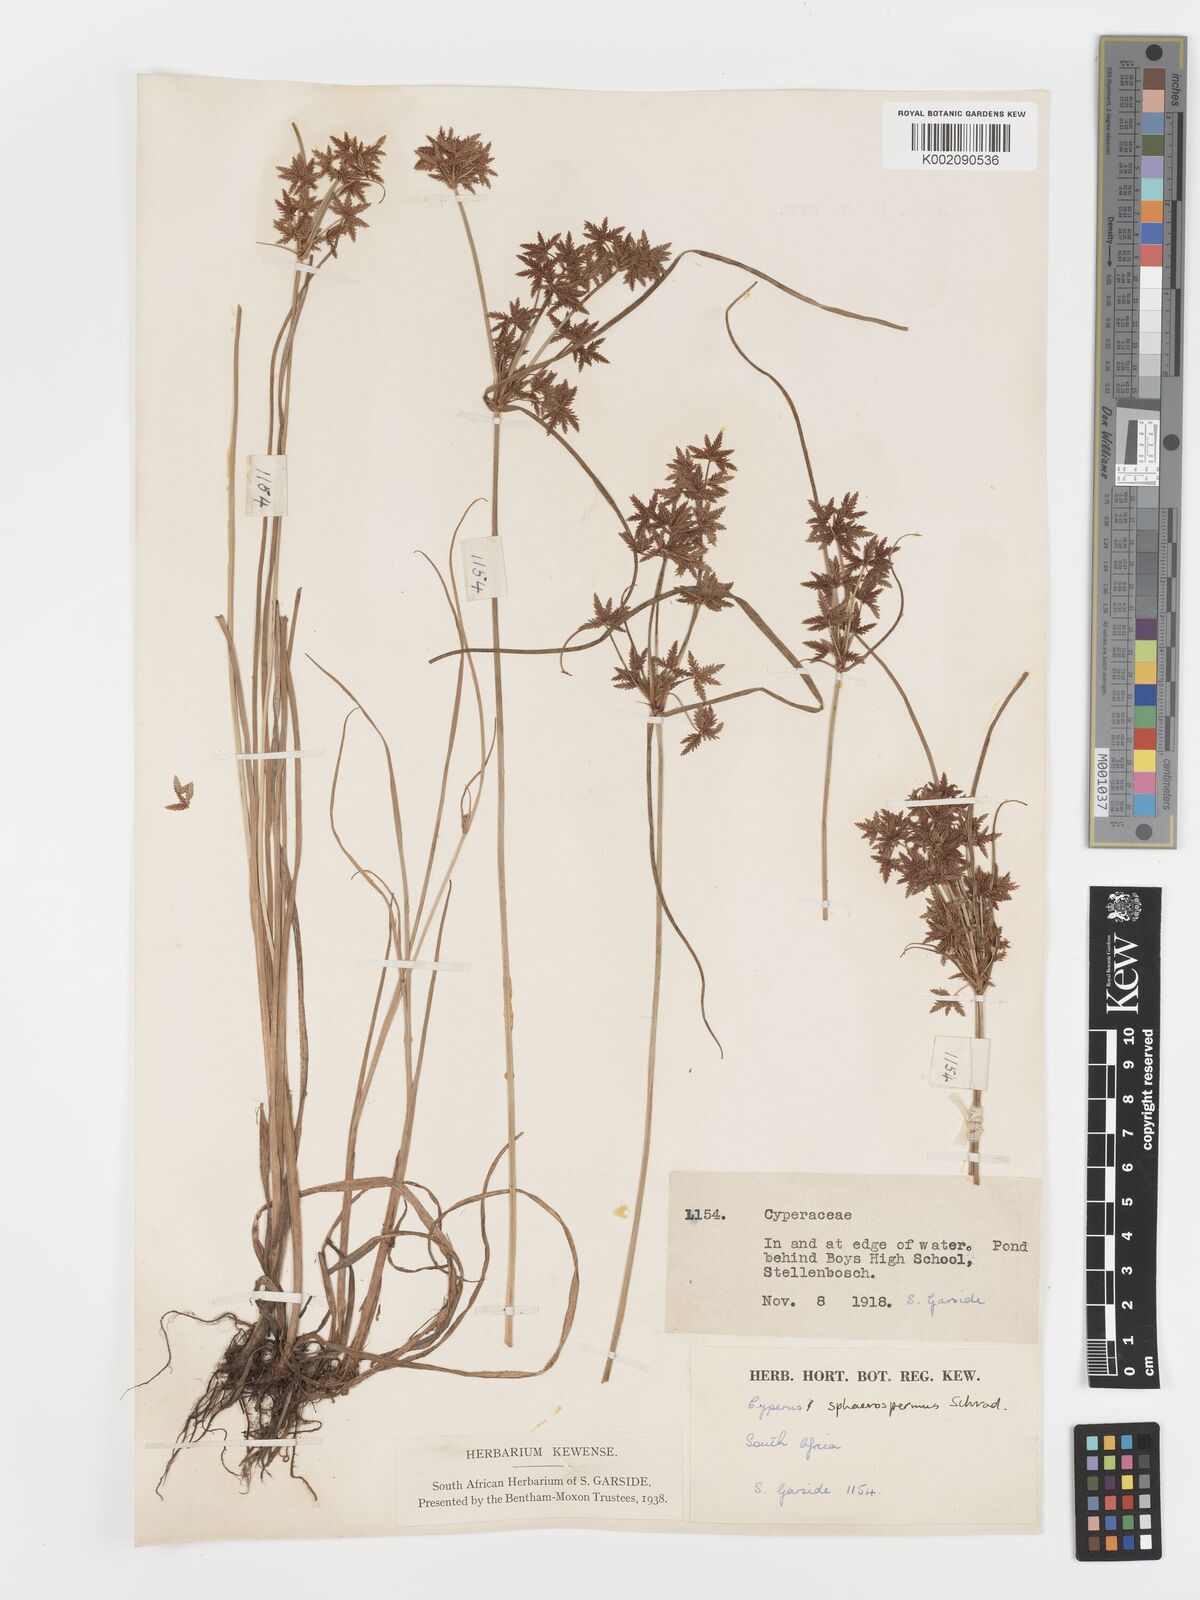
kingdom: Plantae
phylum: Tracheophyta
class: Liliopsida
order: Poales
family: Cyperaceae
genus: Cyperus
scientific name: Cyperus sphaerospermus
